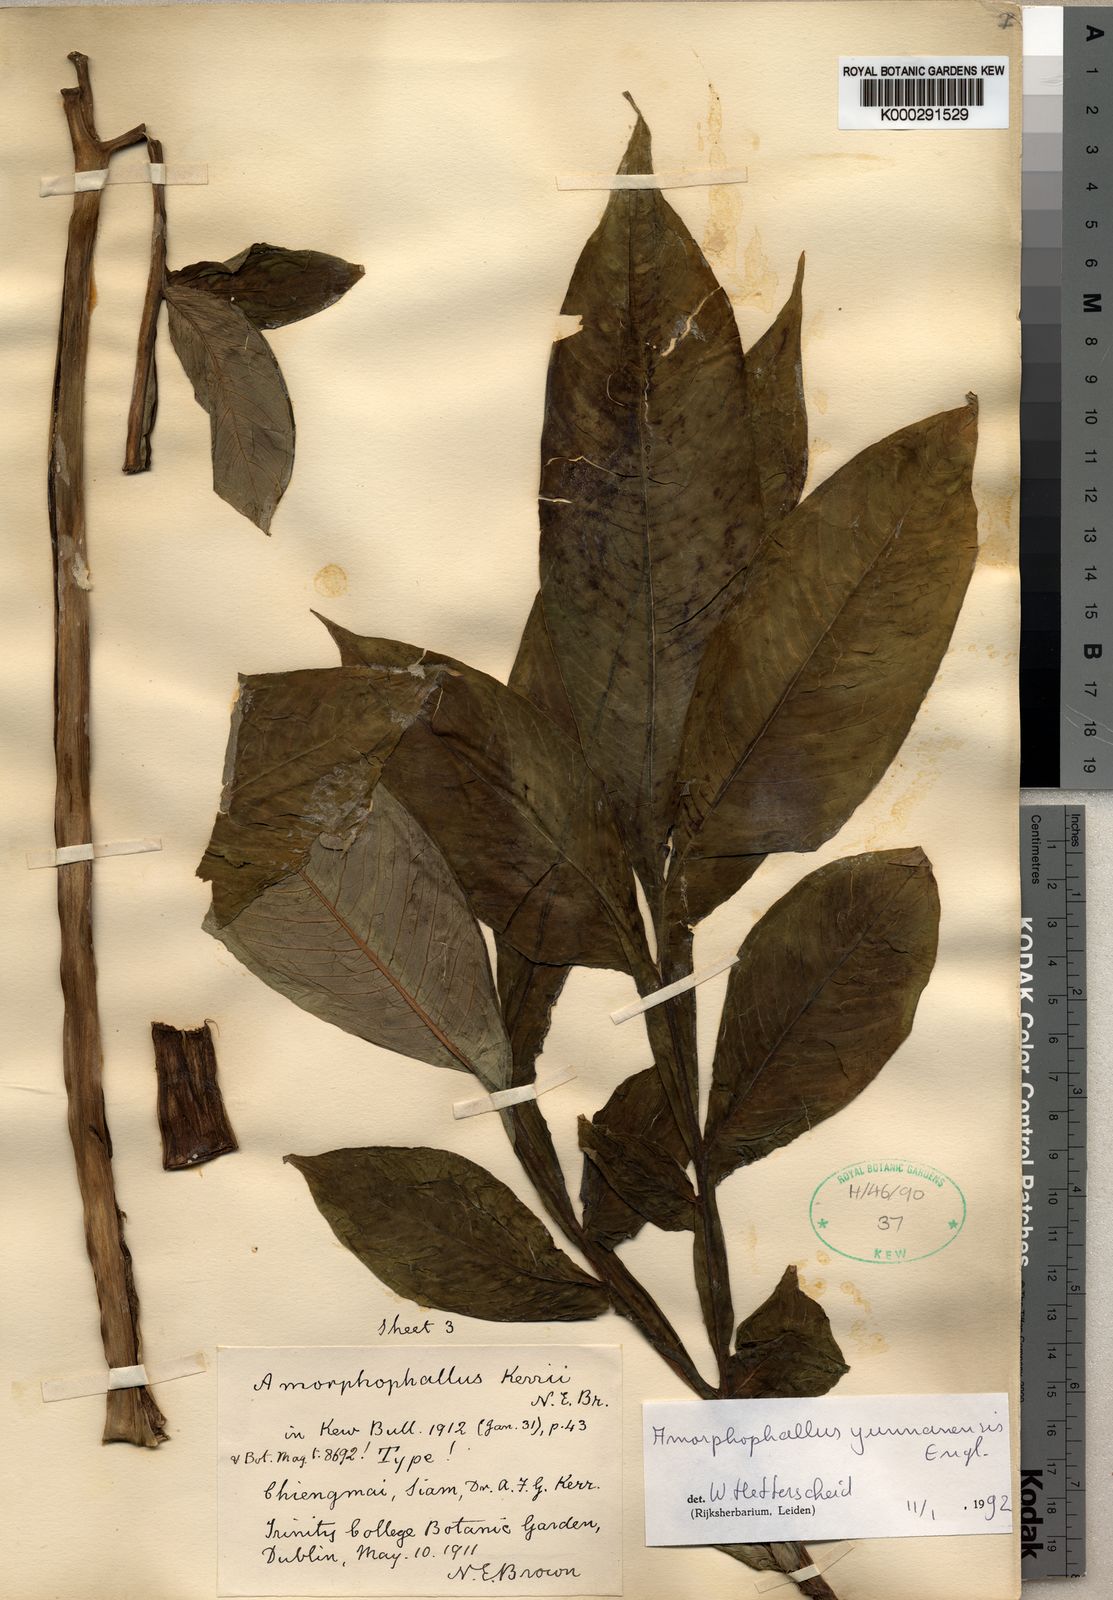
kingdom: Plantae
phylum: Tracheophyta
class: Liliopsida
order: Alismatales
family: Araceae
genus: Amorphophallus
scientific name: Amorphophallus yunnanensis
